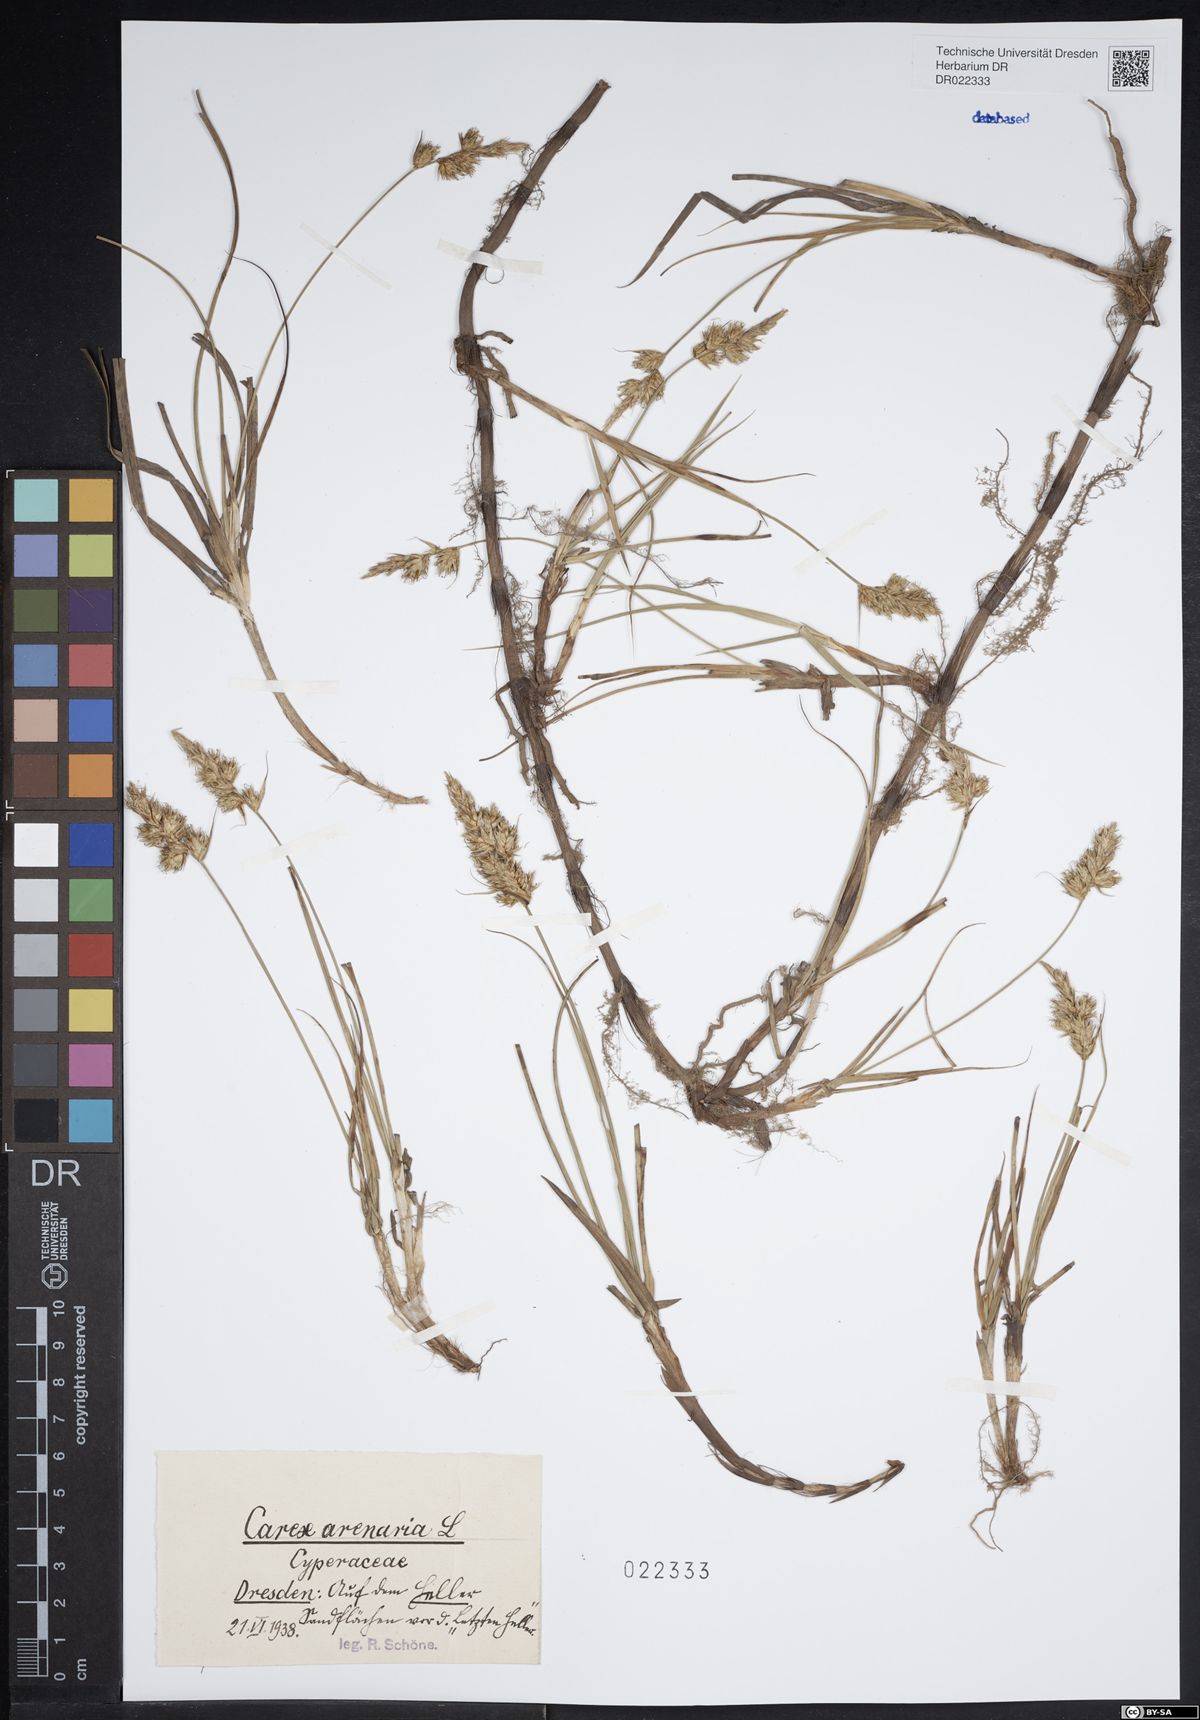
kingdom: Plantae
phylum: Tracheophyta
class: Liliopsida
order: Poales
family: Cyperaceae
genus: Carex
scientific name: Carex arenaria
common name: Sand sedge
